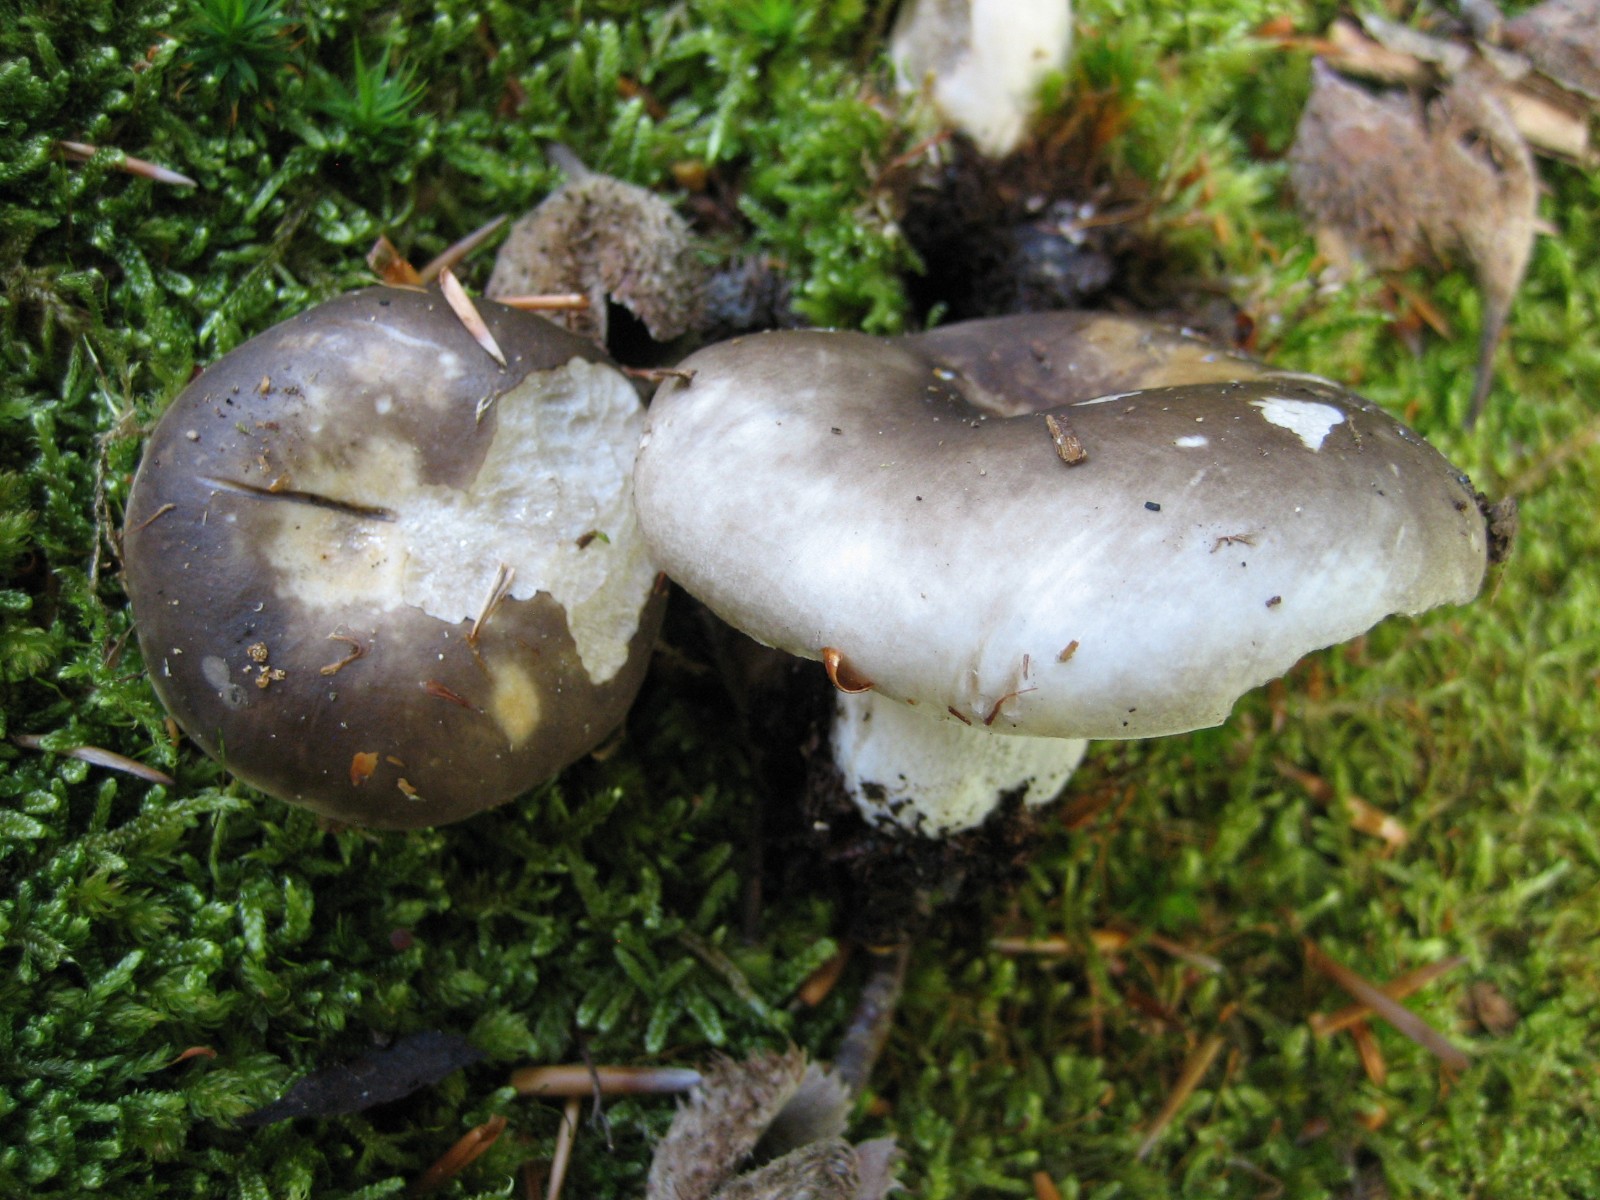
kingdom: Fungi
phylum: Basidiomycota
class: Agaricomycetes
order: Russulales
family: Russulaceae
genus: Russula
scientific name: Russula densifolia
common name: tætbladet skørhat
